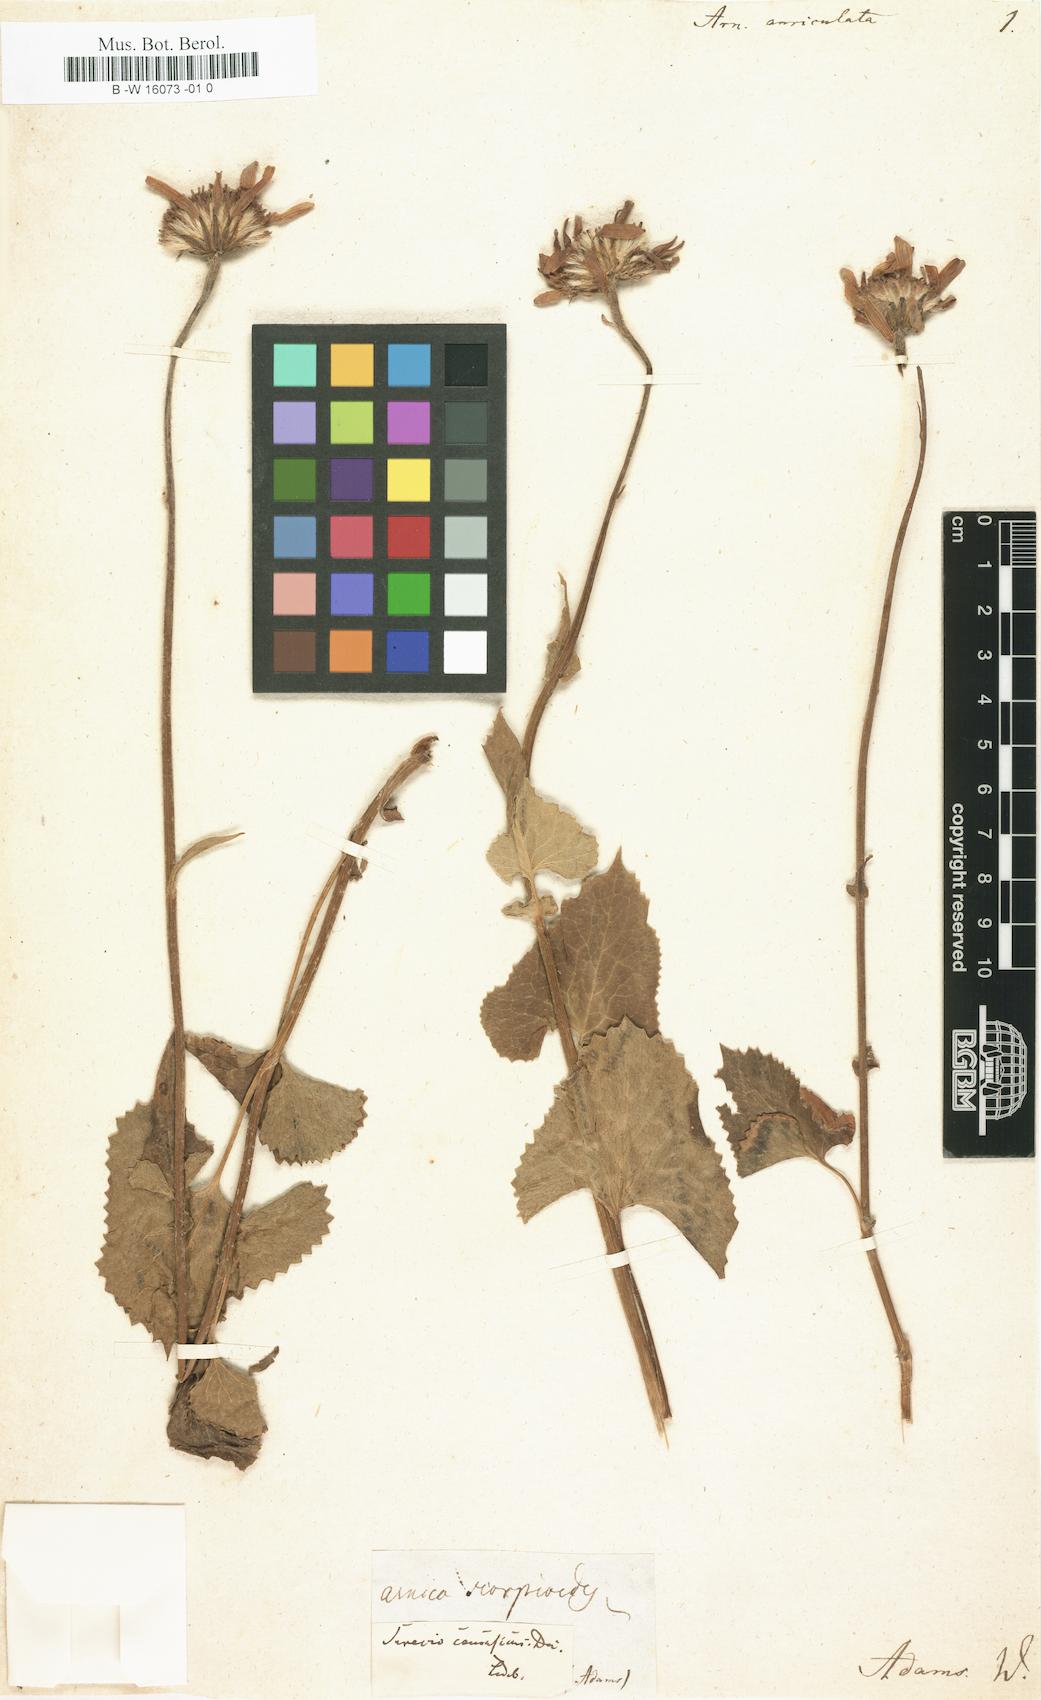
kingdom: Plantae
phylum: Tracheophyta
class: Magnoliopsida
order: Asterales
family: Asteraceae
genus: Dolichorrhiza
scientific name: Dolichorrhiza renifolia
